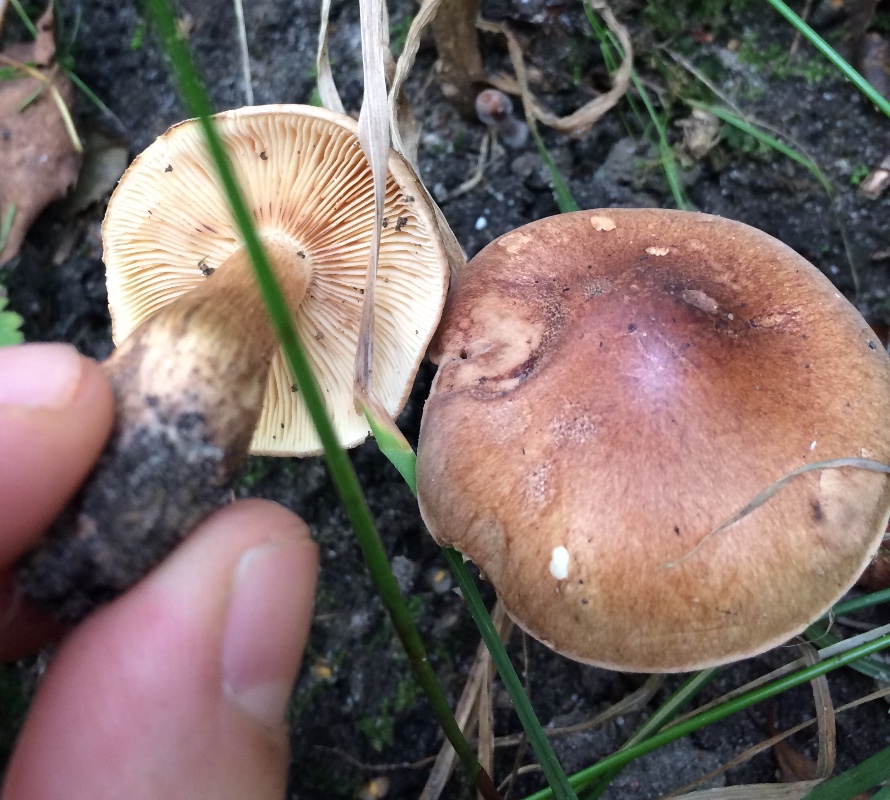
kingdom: Fungi
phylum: Basidiomycota
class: Agaricomycetes
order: Agaricales
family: Tricholomataceae
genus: Tricholoma
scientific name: Tricholoma fulvum
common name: birke-ridderhat
